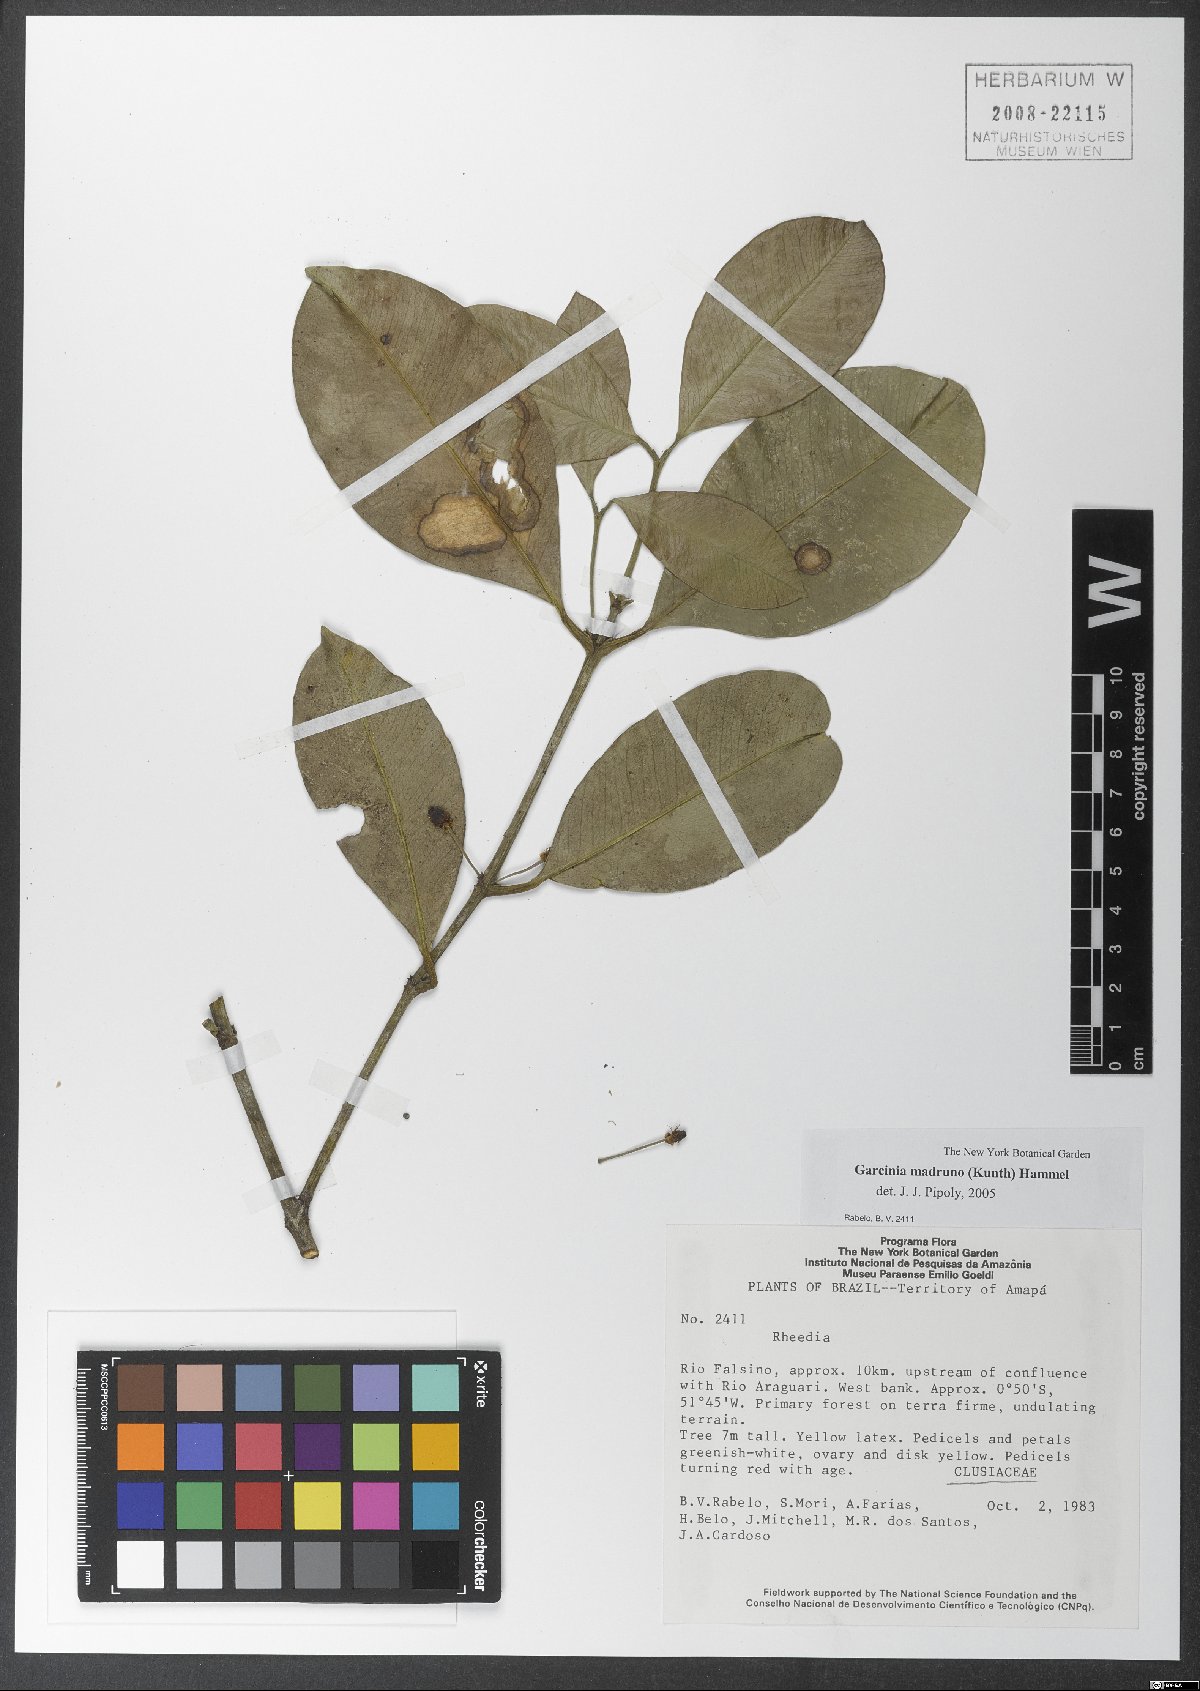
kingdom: Plantae
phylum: Tracheophyta
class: Magnoliopsida
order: Malpighiales
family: Clusiaceae
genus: Garcinia
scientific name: Garcinia madruno
